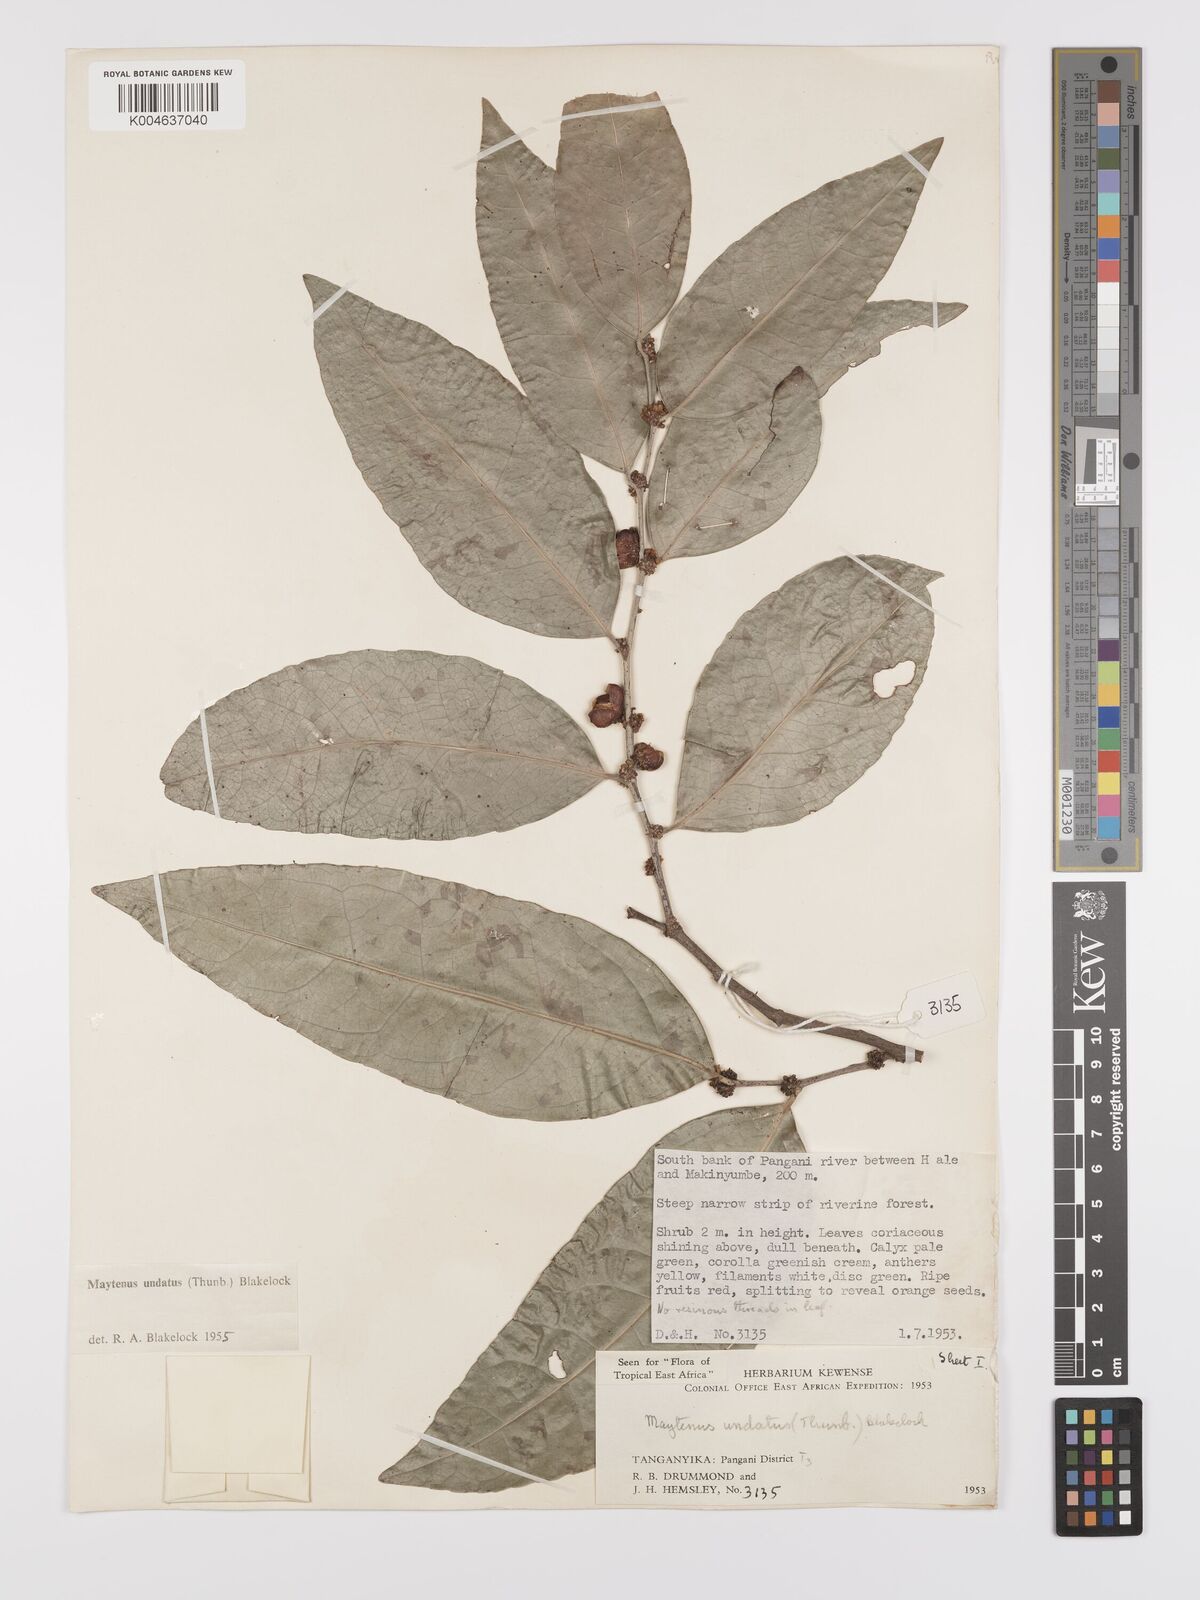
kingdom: Plantae
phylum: Tracheophyta
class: Magnoliopsida
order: Celastrales
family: Celastraceae
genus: Gymnosporia
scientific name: Gymnosporia undata
